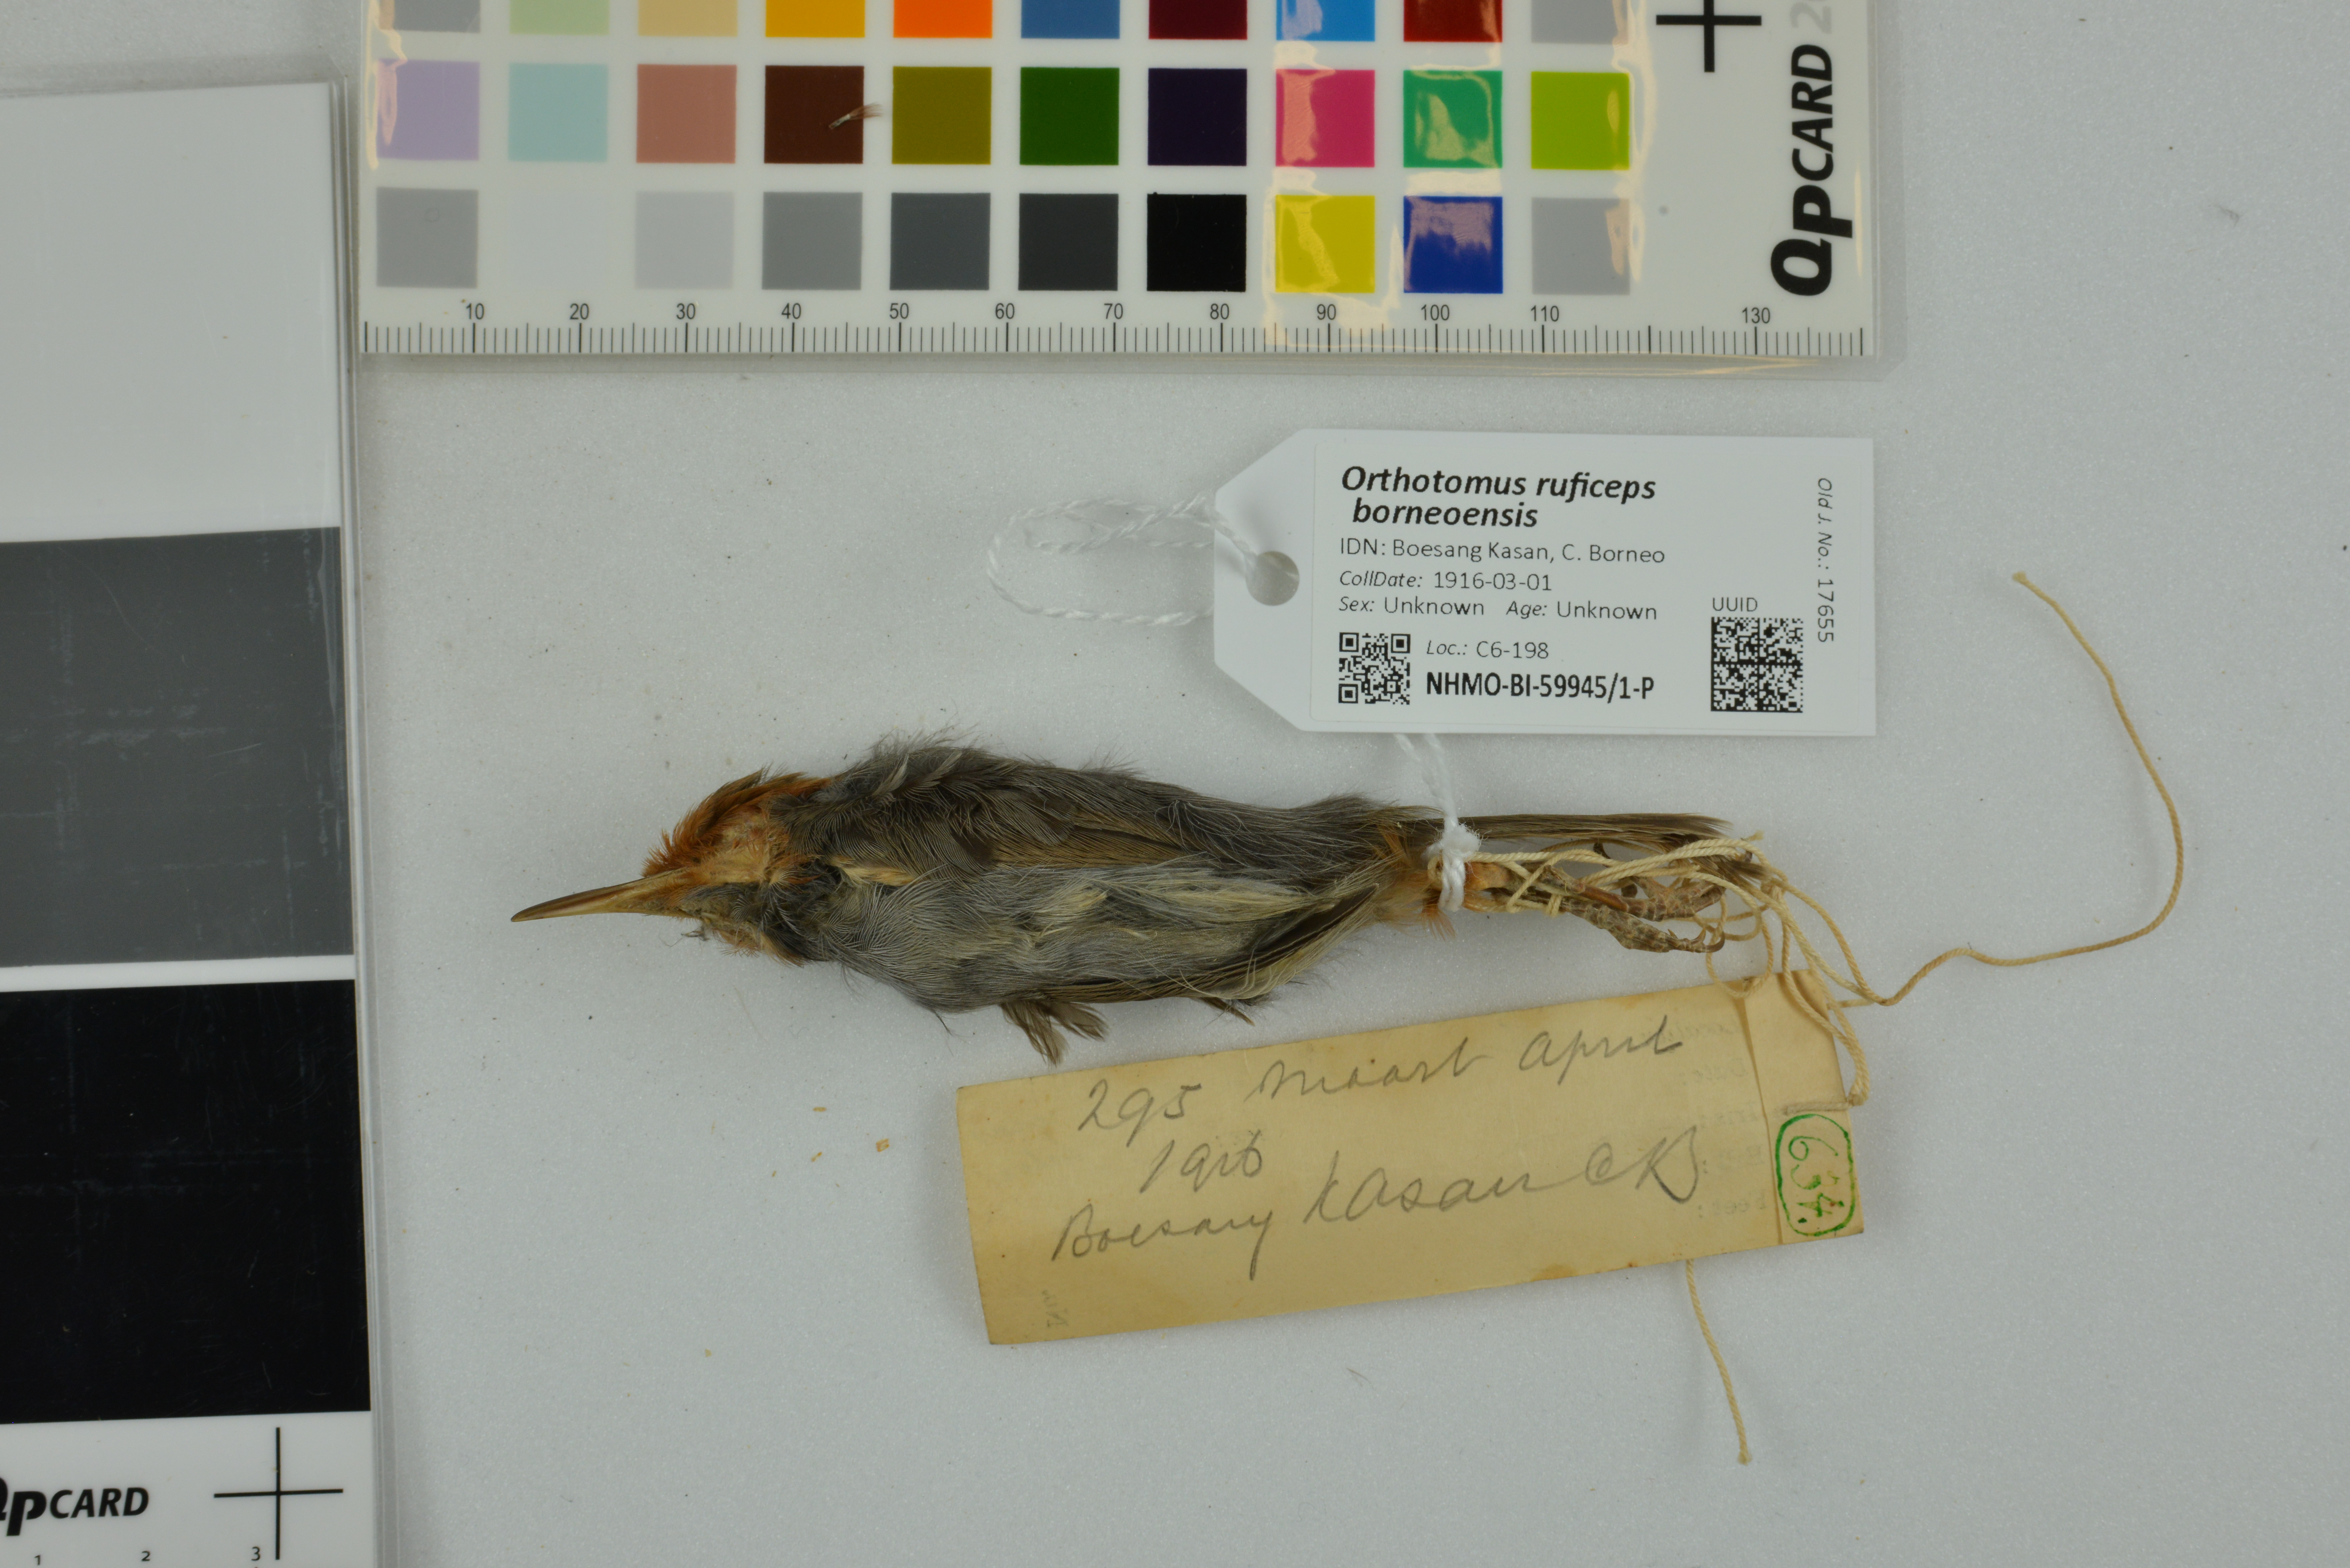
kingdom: Animalia
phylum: Chordata
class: Aves
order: Passeriformes
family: Cisticolidae
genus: Orthotomus
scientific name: Orthotomus ruficeps
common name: Ashy tailorbird
